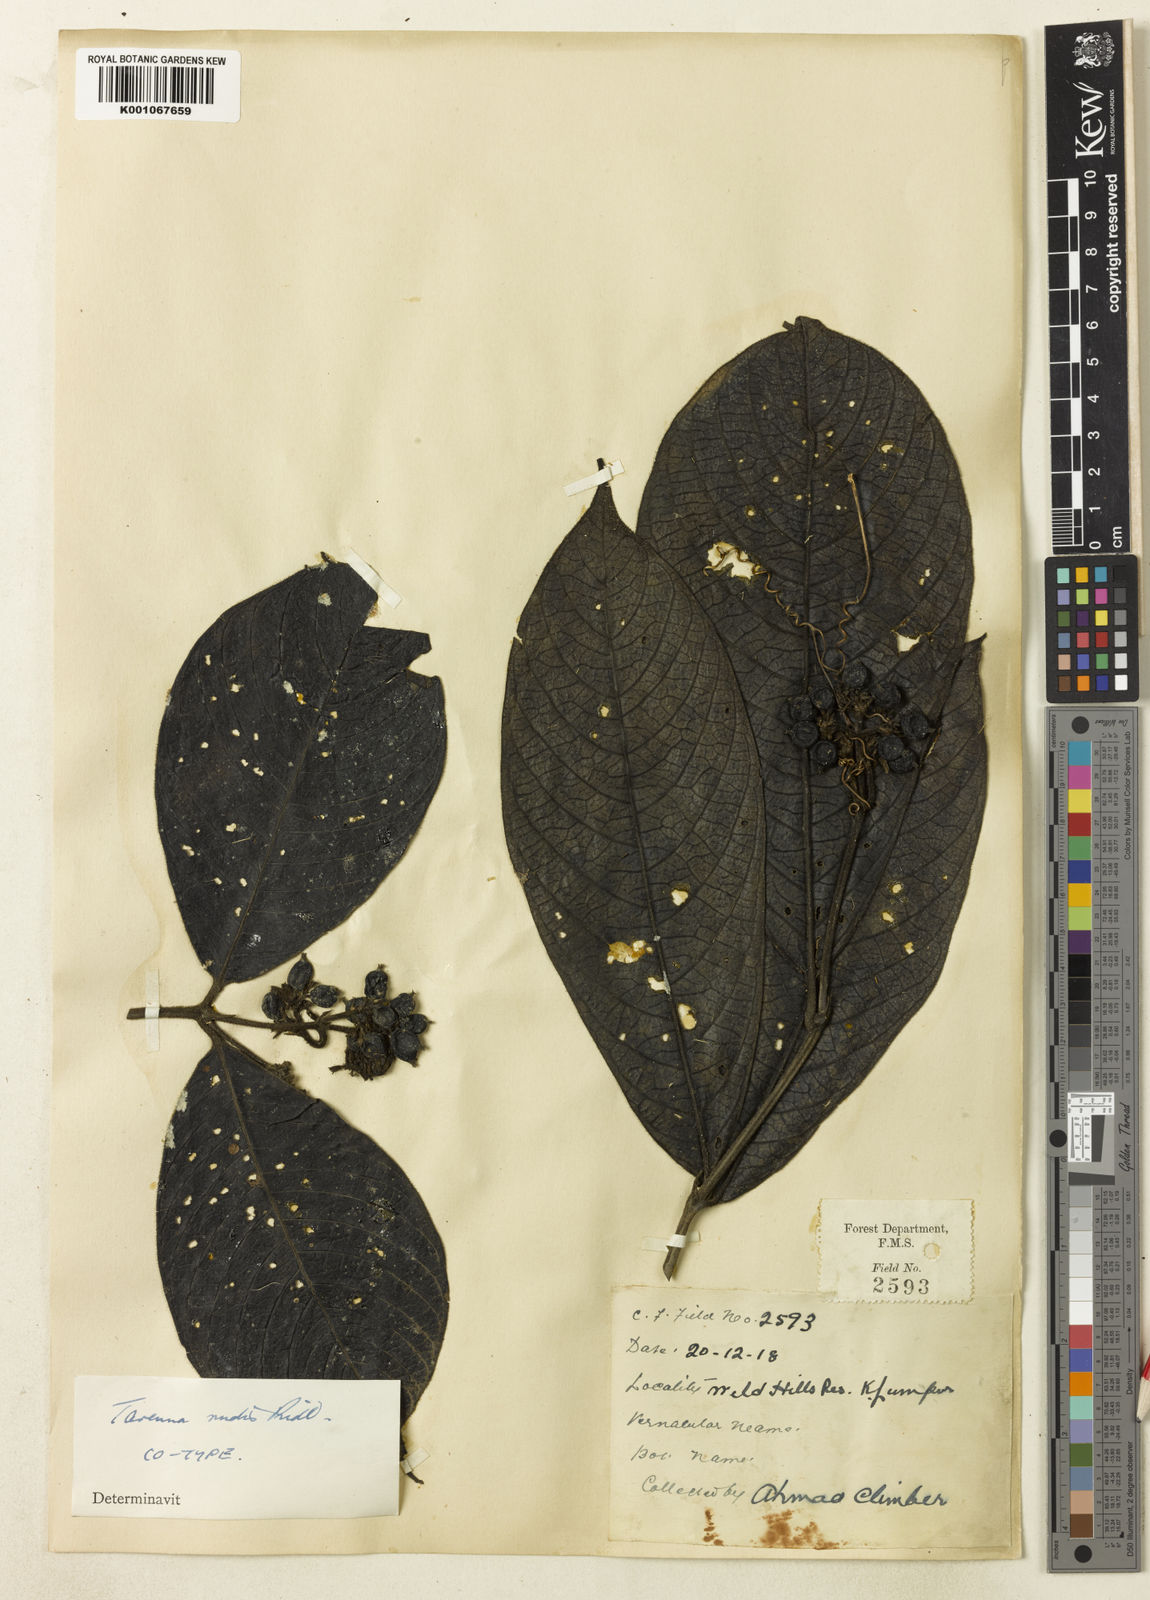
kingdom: Plantae
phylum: Tracheophyta
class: Magnoliopsida
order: Gentianales
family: Rubiaceae
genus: Tarenna
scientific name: Tarenna rudis
